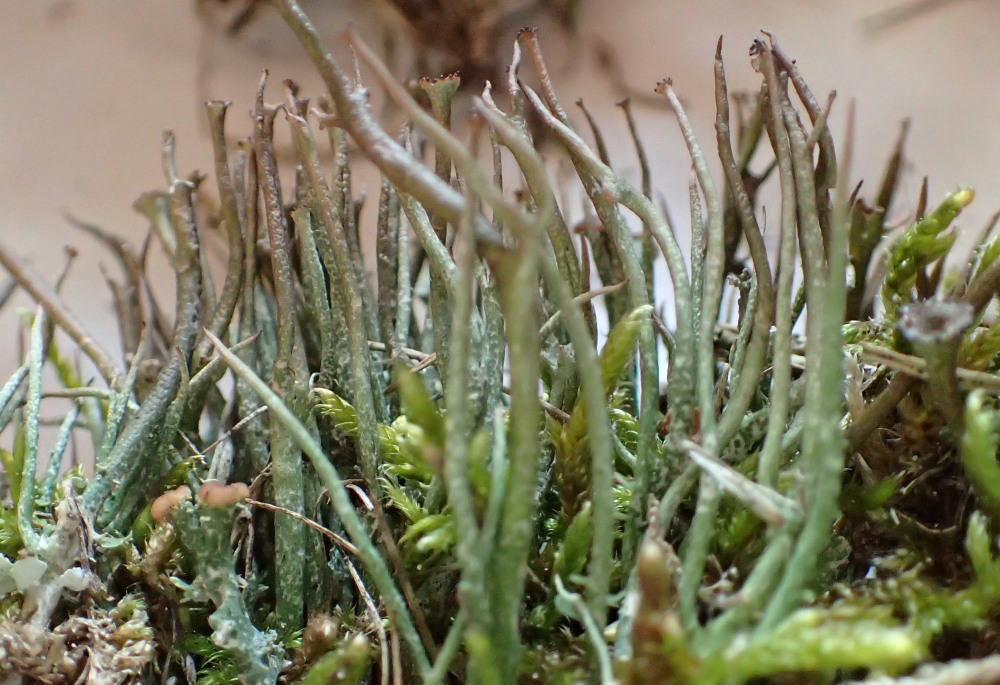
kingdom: Fungi
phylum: Ascomycota
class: Lecanoromycetes
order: Lecanorales
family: Cladoniaceae
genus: Cladonia
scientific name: Cladonia gracilis
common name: slank bægerlav
